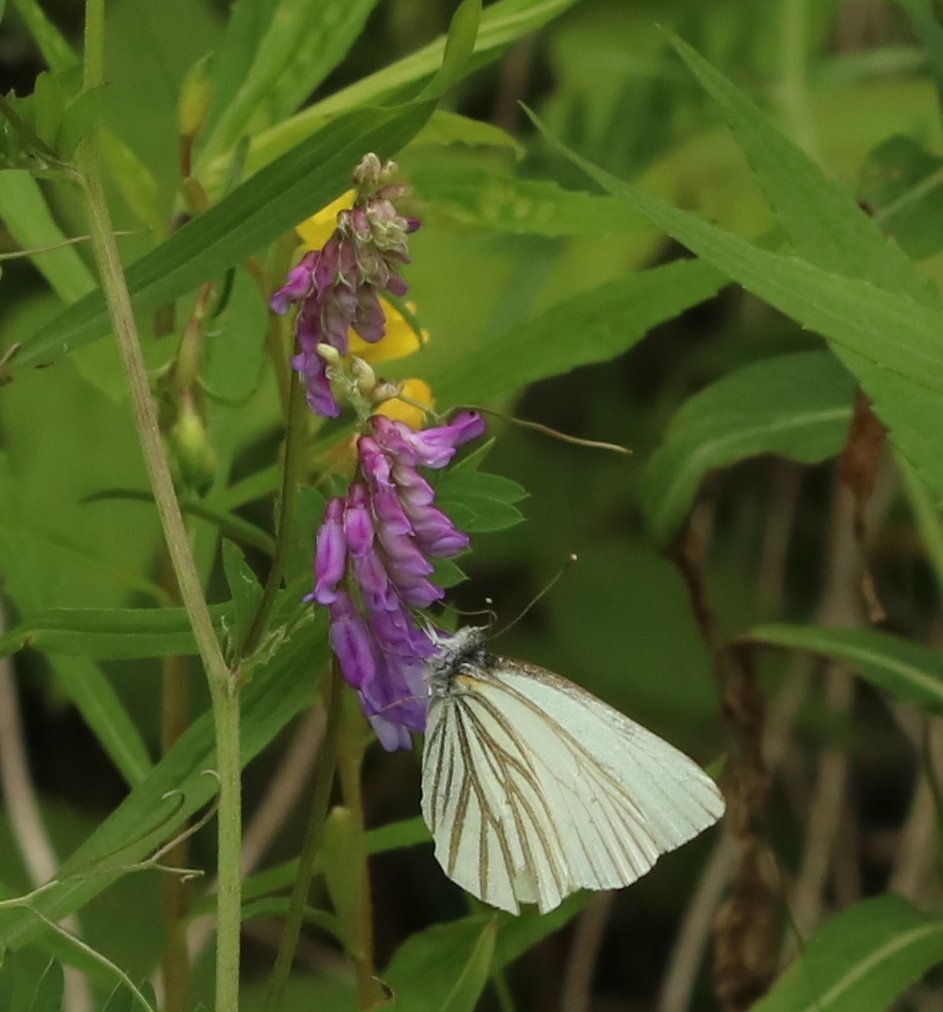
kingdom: Animalia
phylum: Arthropoda
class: Insecta
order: Lepidoptera
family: Pieridae
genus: Pieris
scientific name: Pieris oleracea
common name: Mustard White
